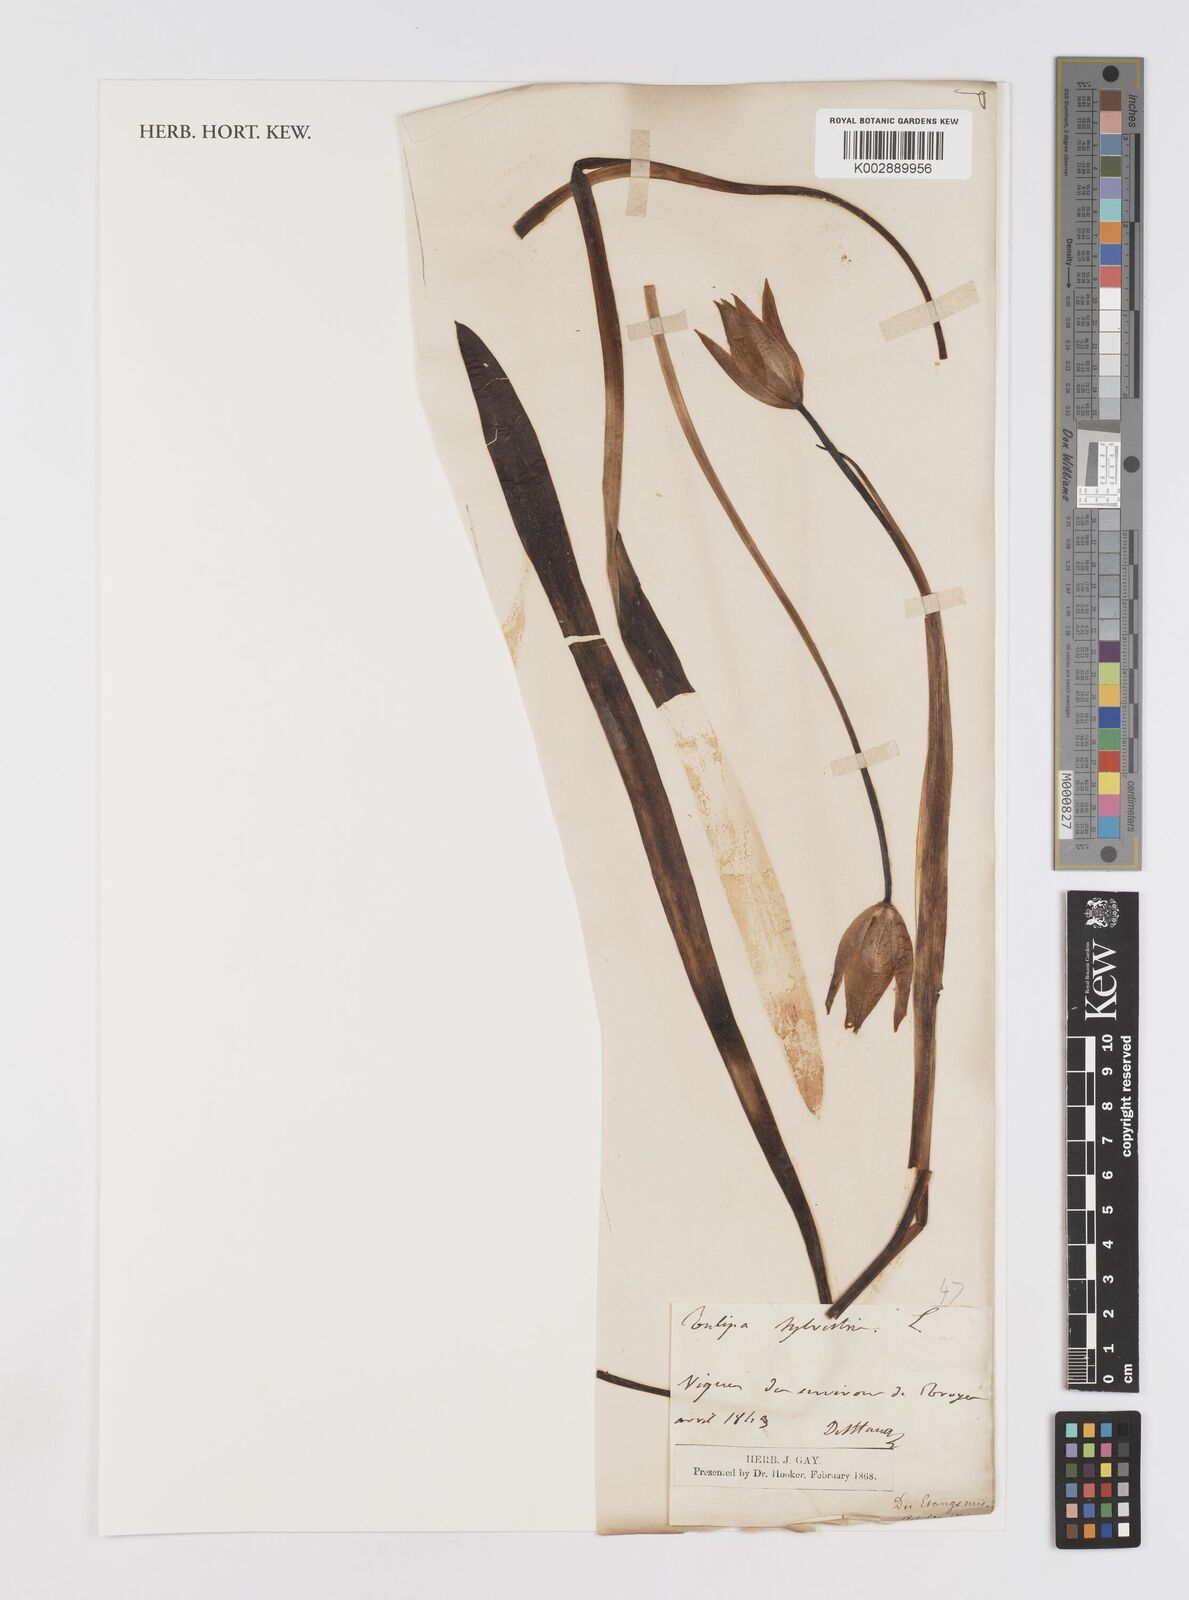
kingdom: Plantae
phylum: Tracheophyta
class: Liliopsida
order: Liliales
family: Liliaceae
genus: Tulipa
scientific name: Tulipa sylvestris
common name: Wild tulip
